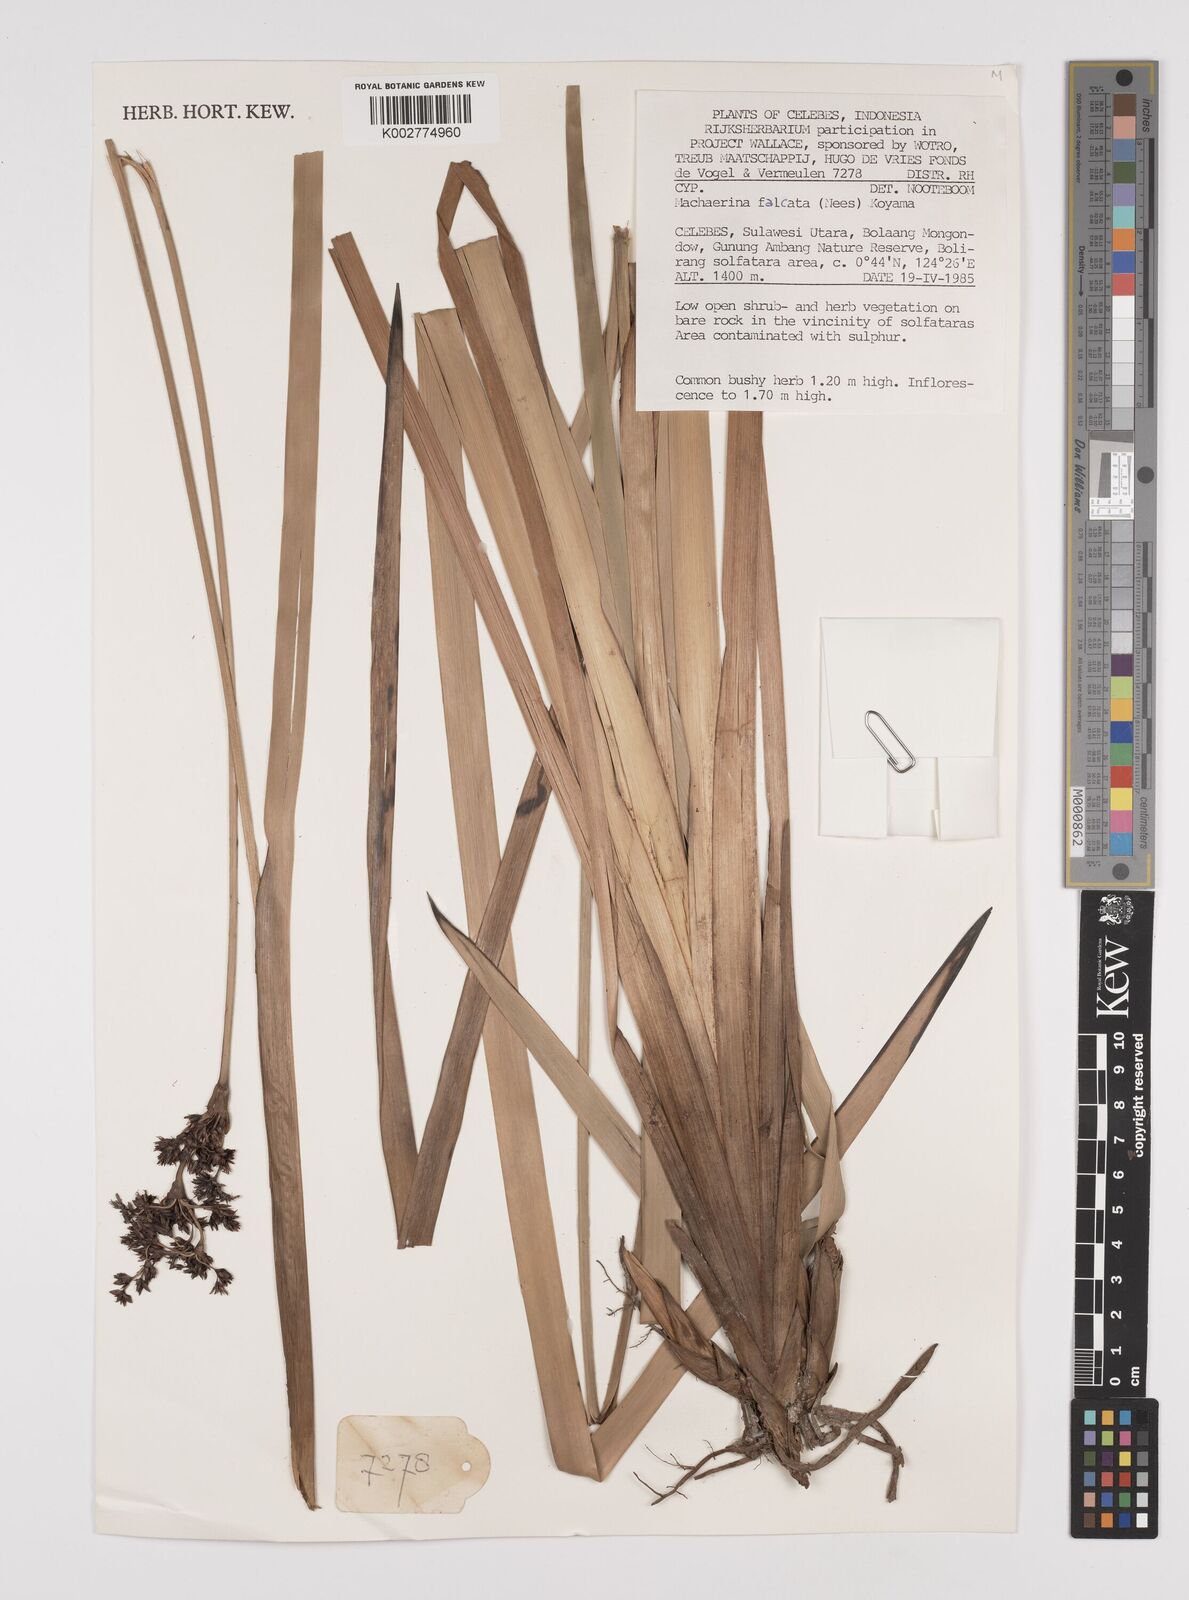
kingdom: Plantae
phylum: Tracheophyta
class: Liliopsida
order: Poales
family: Cyperaceae
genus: Machaerina
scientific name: Machaerina falcata
